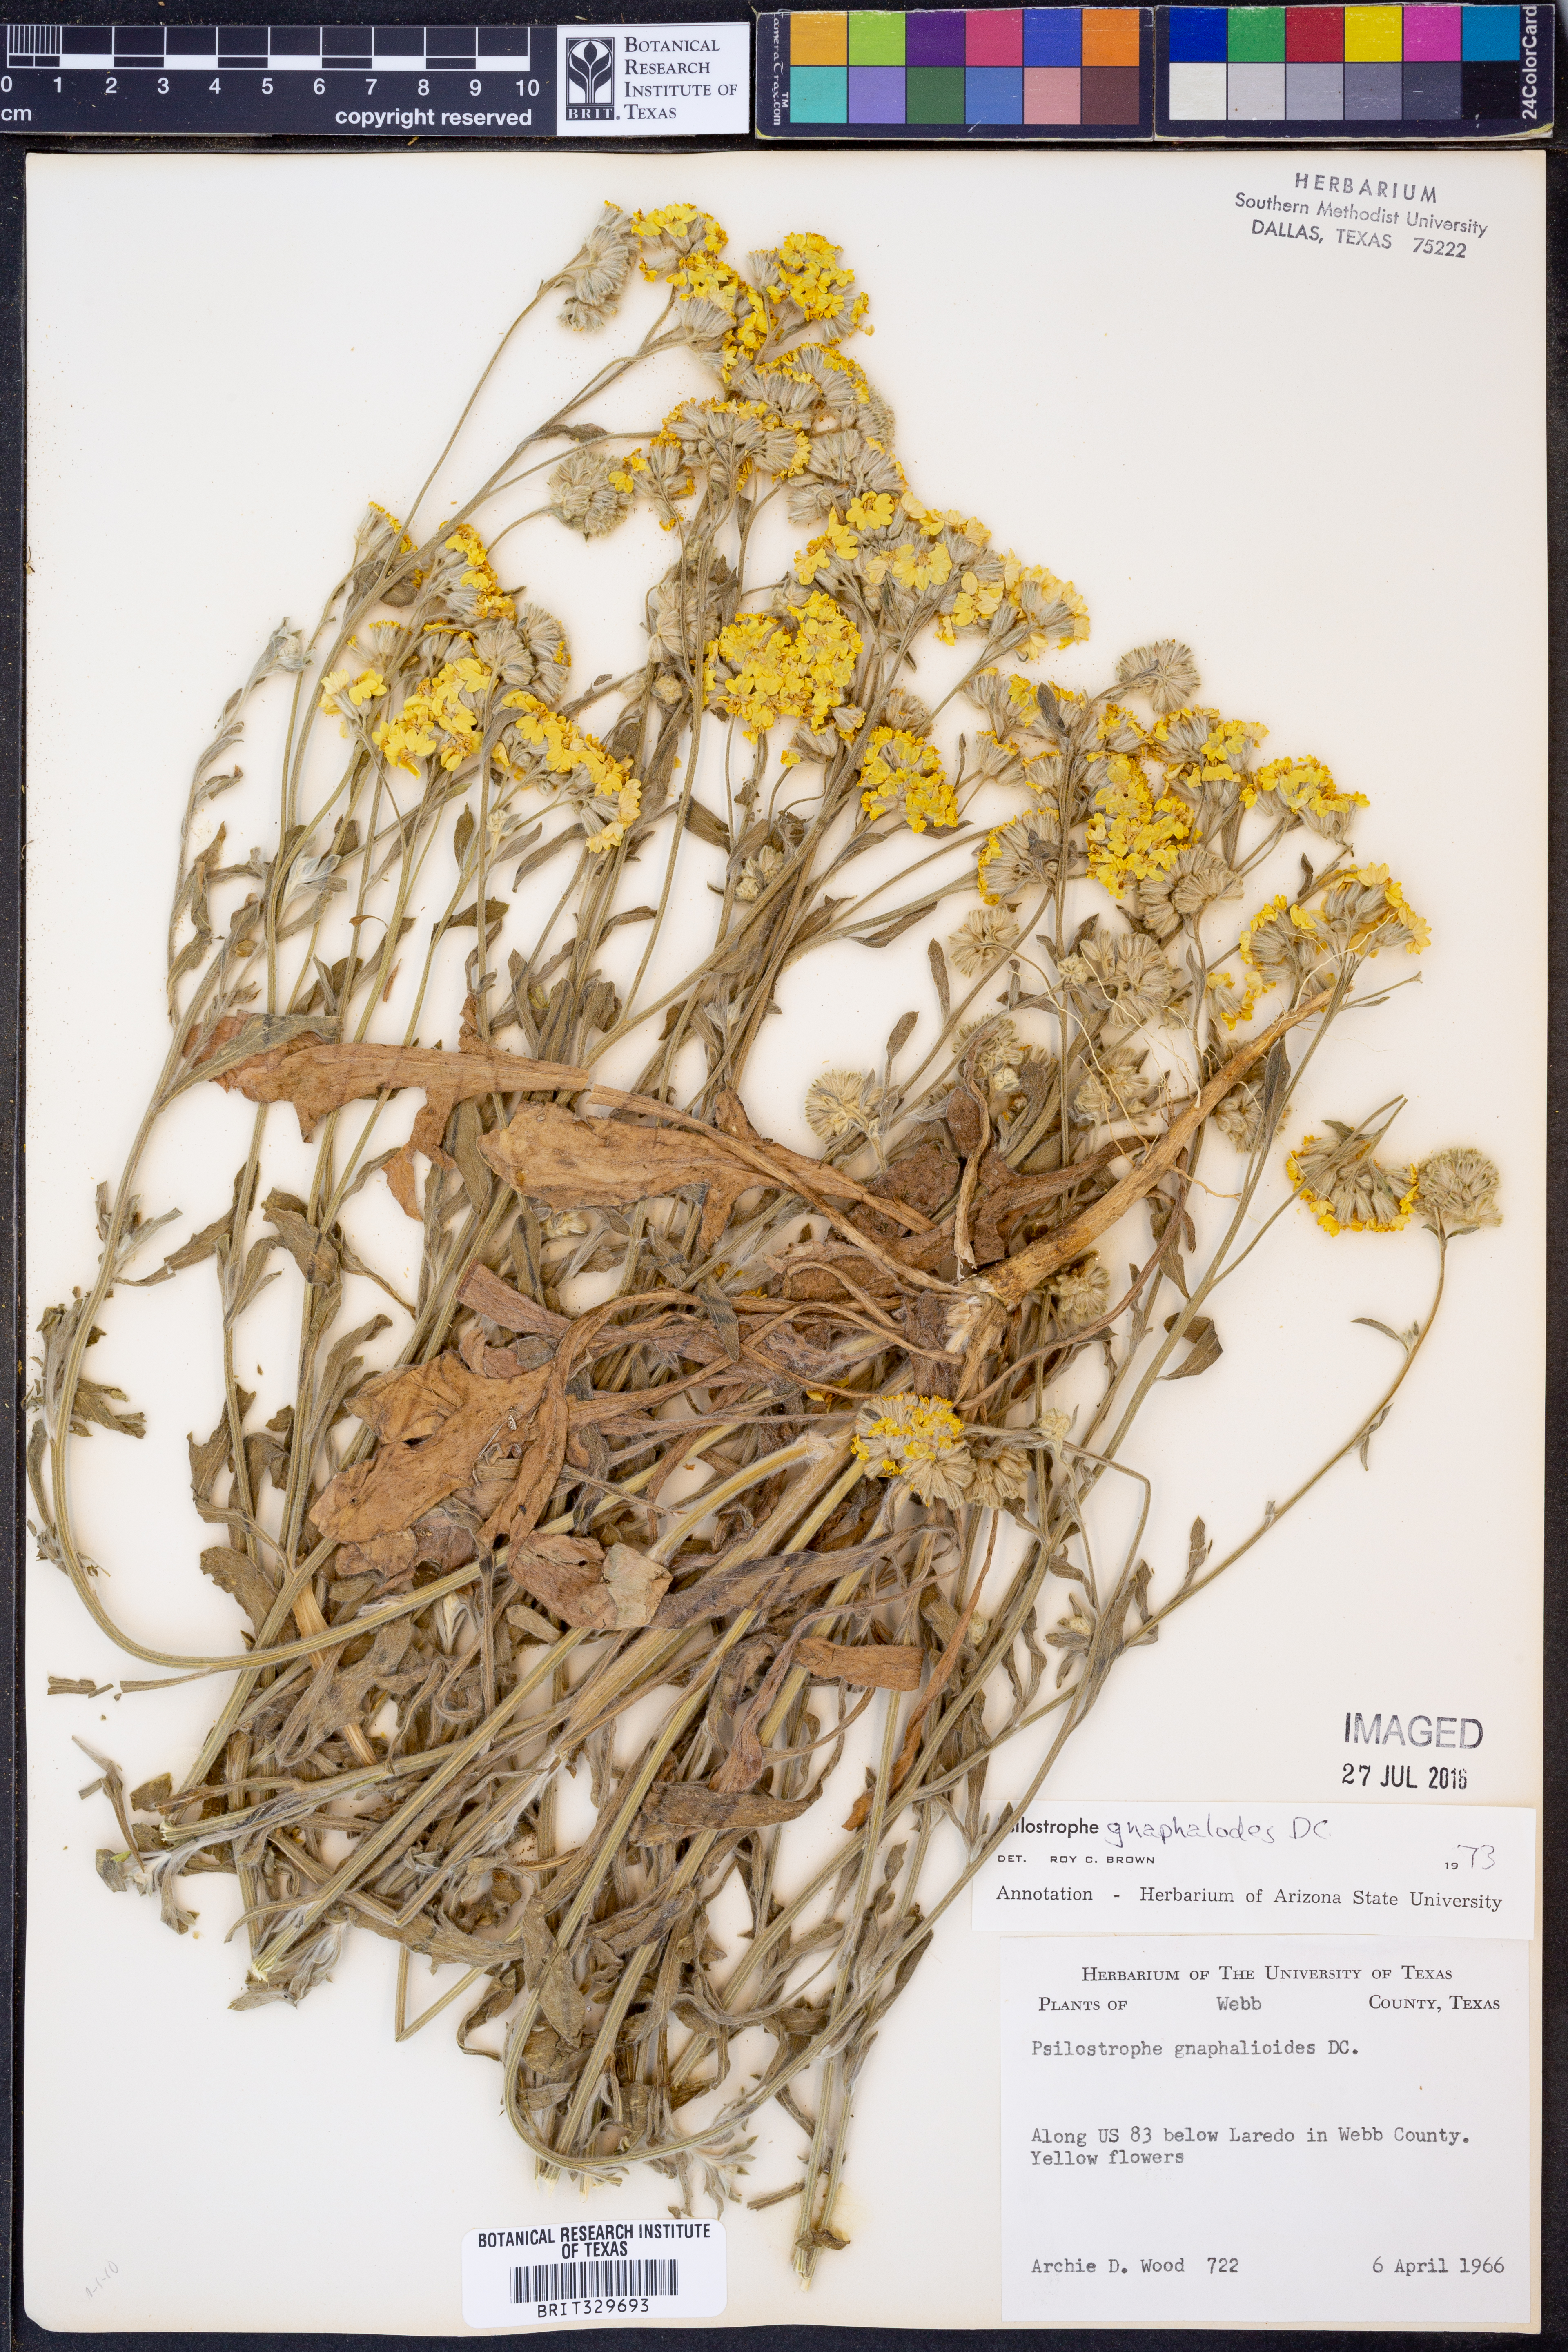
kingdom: Plantae
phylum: Tracheophyta
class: Magnoliopsida
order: Asterales
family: Asteraceae
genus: Psilostrophe
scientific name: Psilostrophe gnaphalioides
